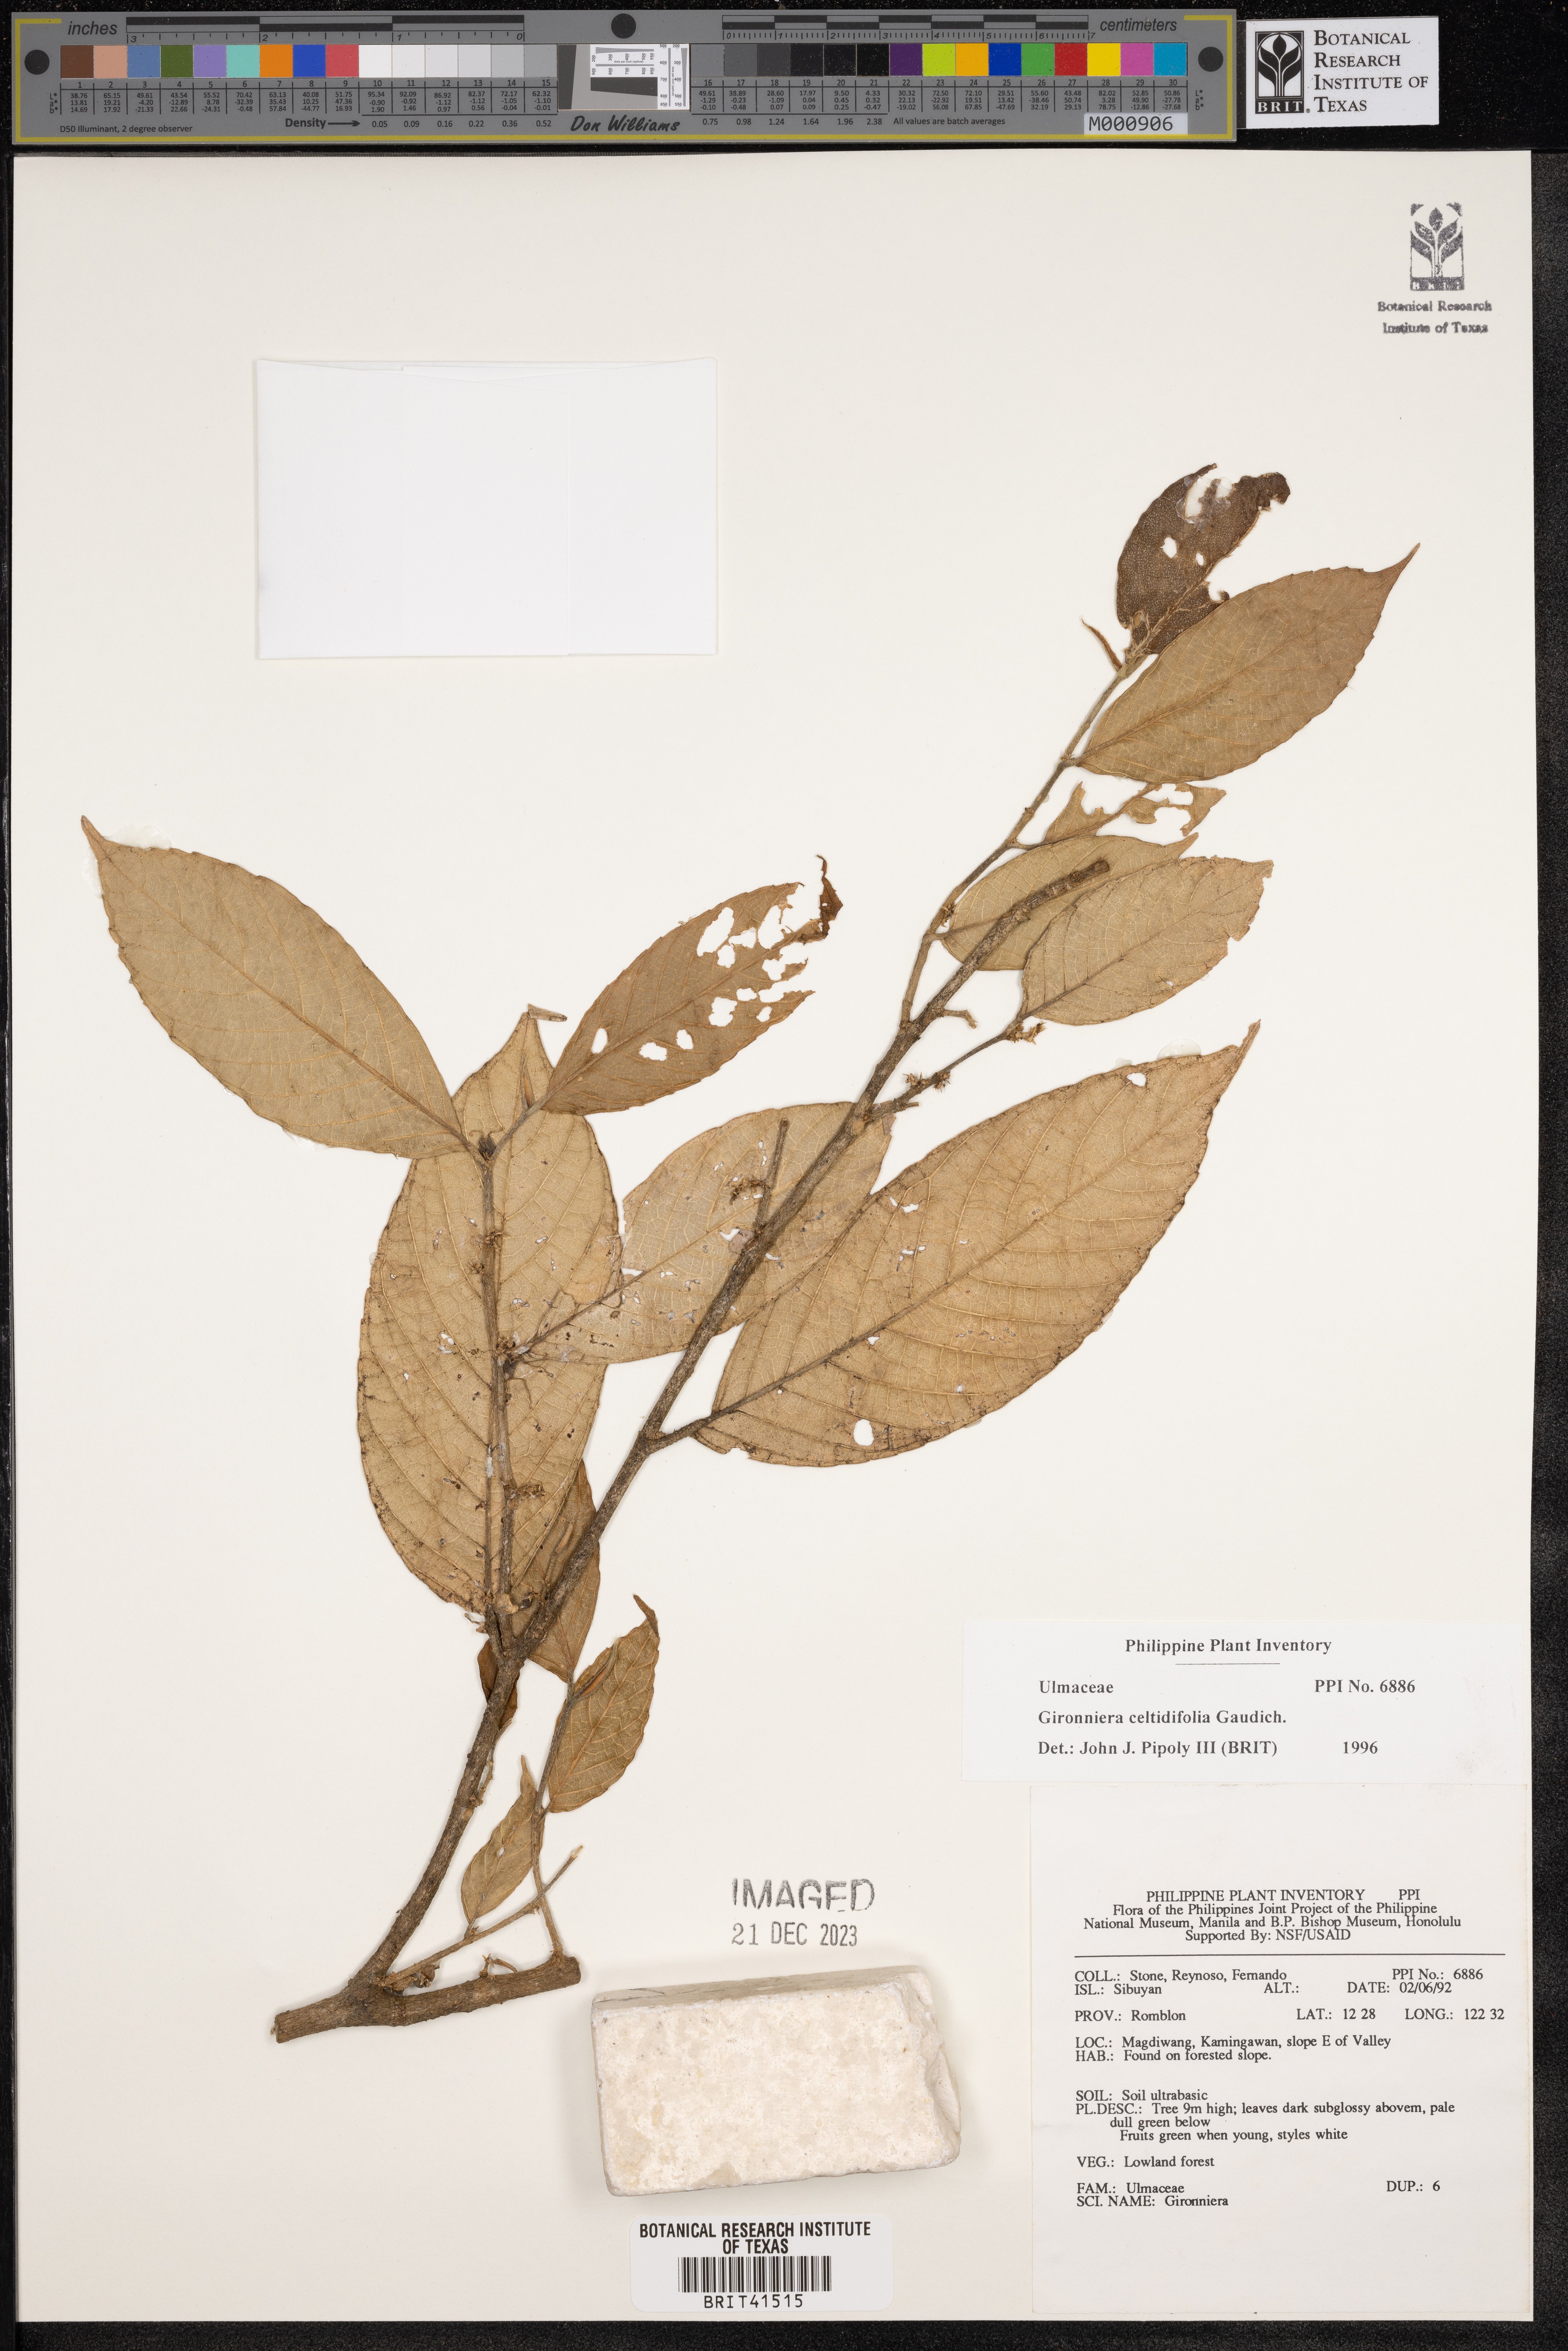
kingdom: Plantae
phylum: Tracheophyta
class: Magnoliopsida
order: Rosales
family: Cannabaceae
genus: Gironniera
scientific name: Gironniera celtidifolia
